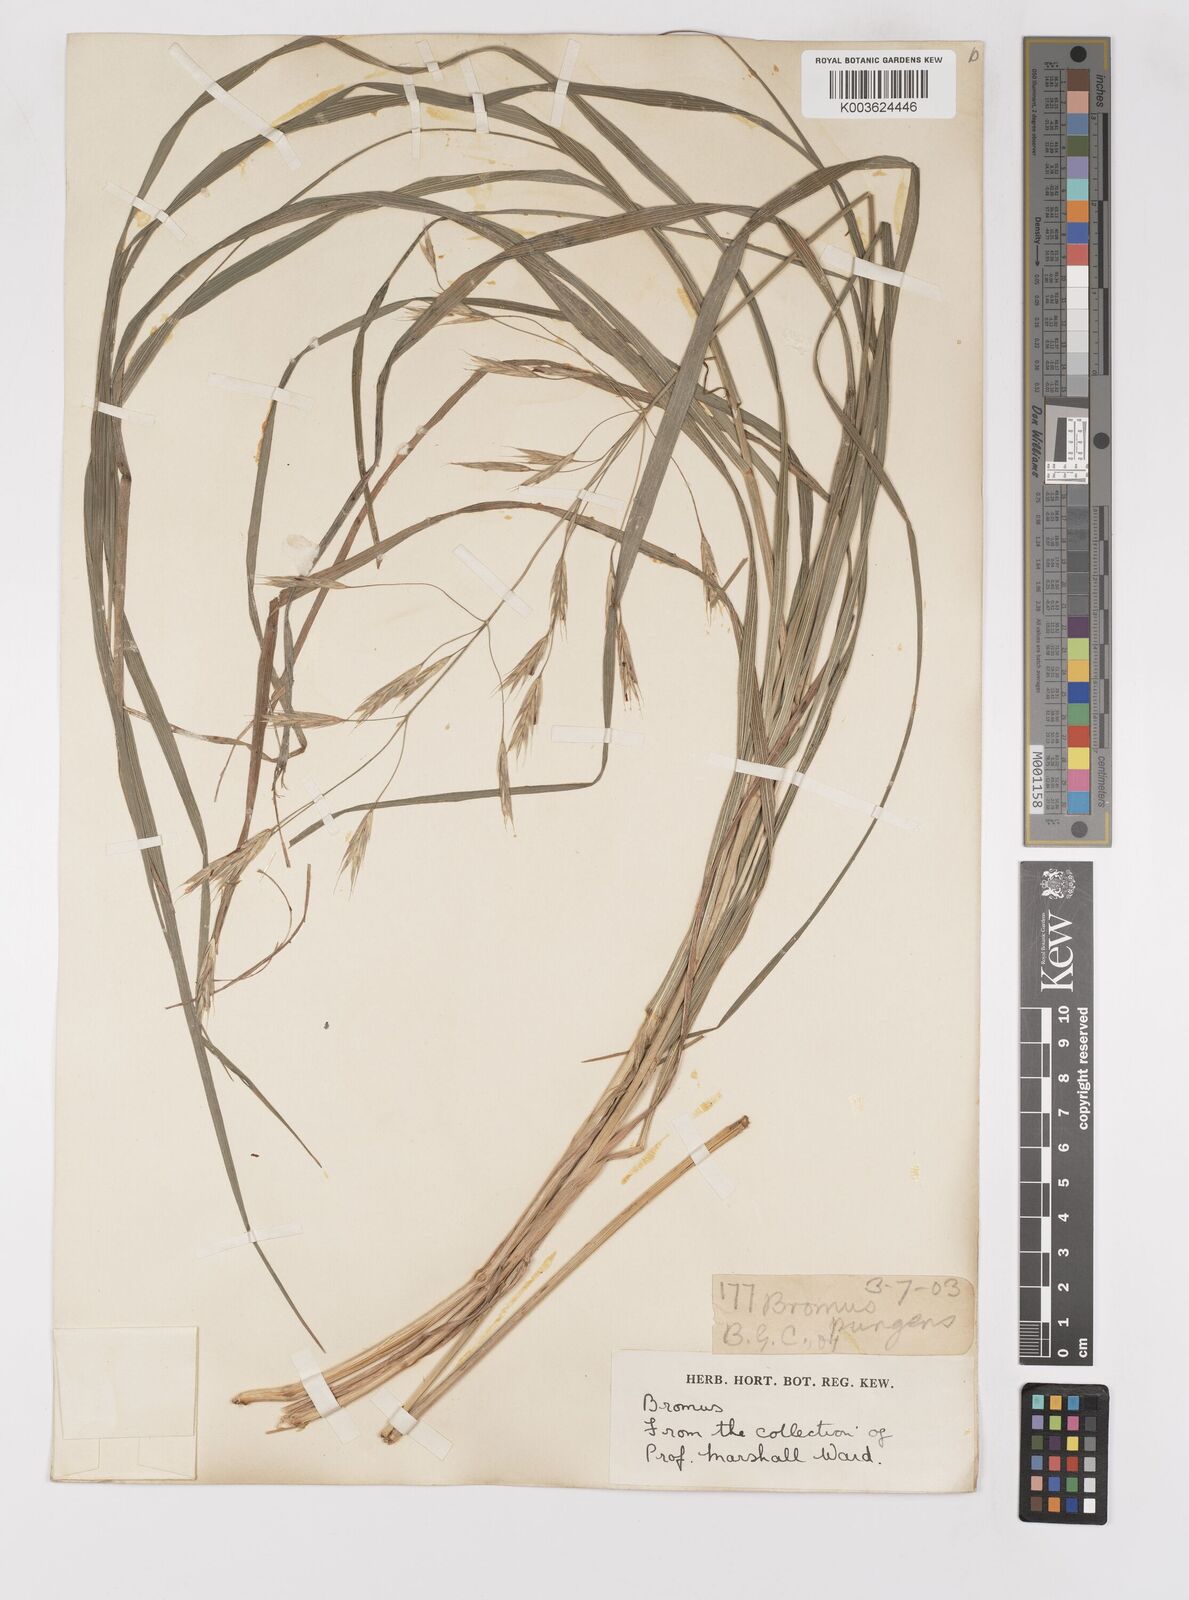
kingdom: Plantae
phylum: Tracheophyta
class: Liliopsida
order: Poales
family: Poaceae
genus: Bromus
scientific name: Bromus
